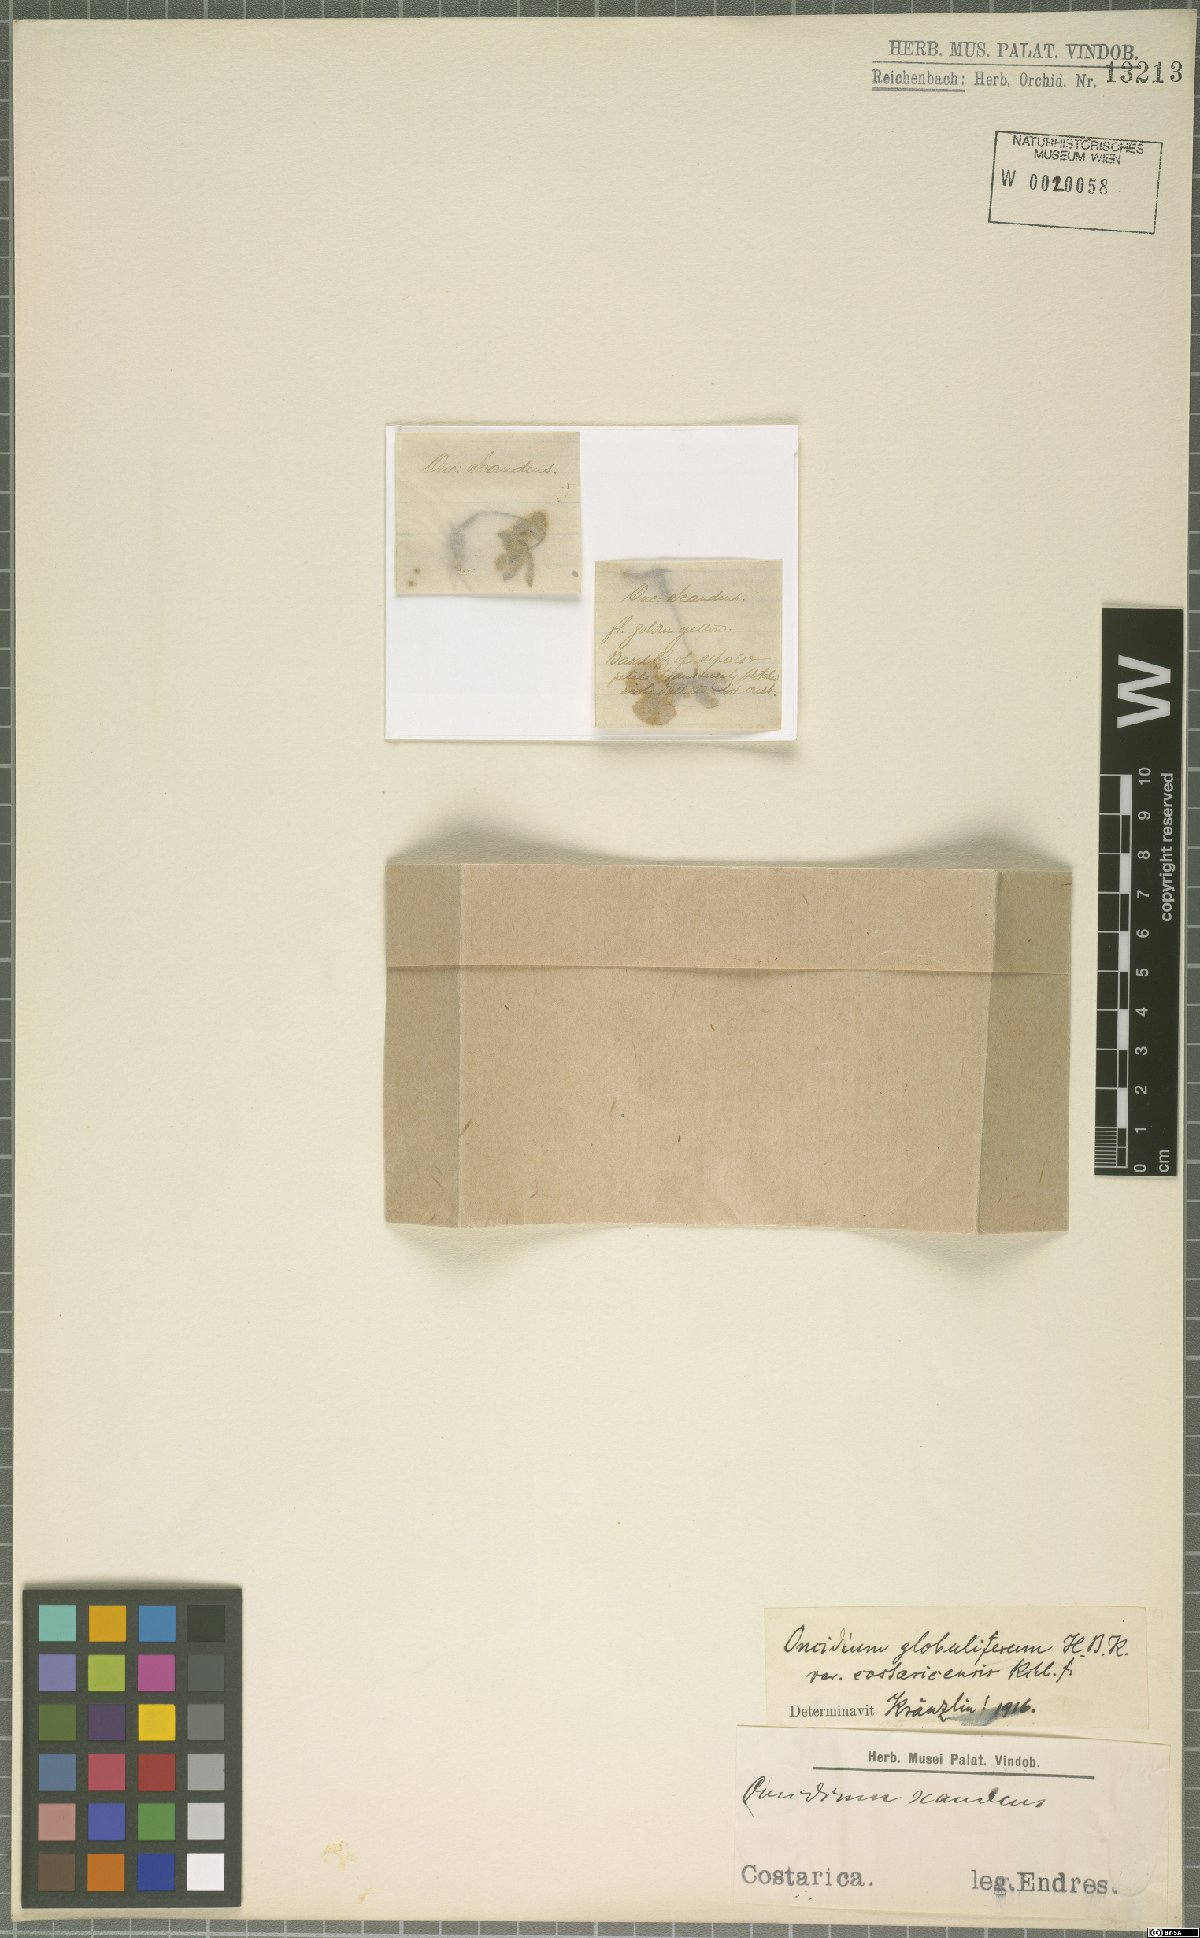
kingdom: Plantae
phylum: Tracheophyta
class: Liliopsida
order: Asparagales
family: Orchidaceae
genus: Otoglossum
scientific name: Otoglossum globuliferum
